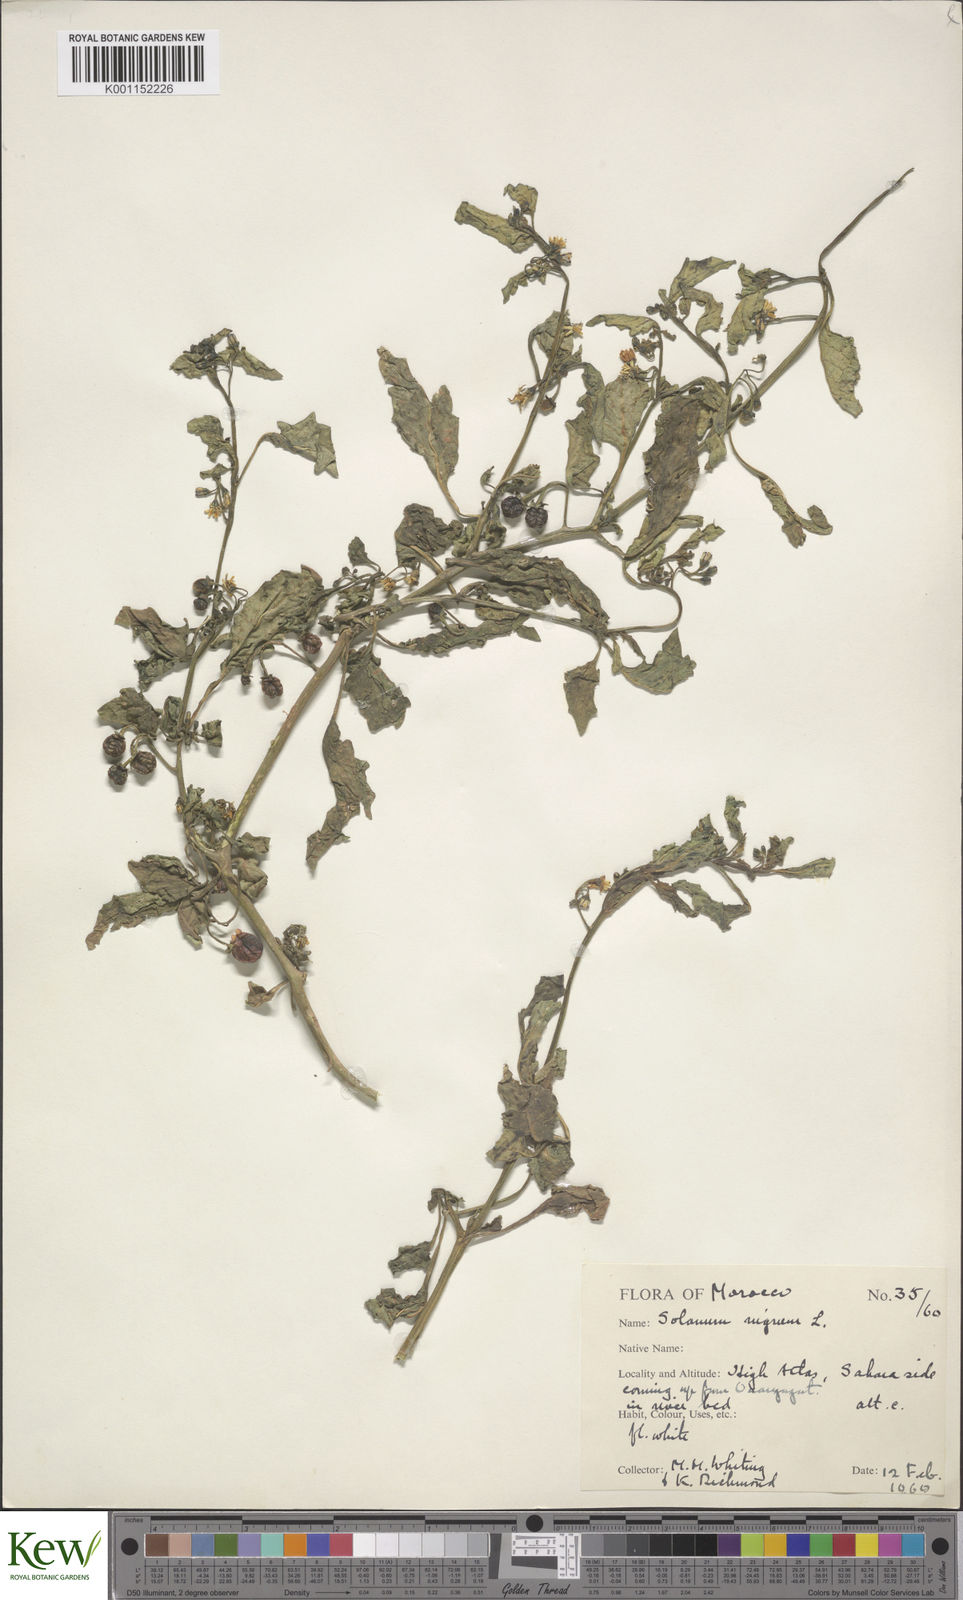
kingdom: Plantae
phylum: Tracheophyta
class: Magnoliopsida
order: Solanales
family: Solanaceae
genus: Solanum
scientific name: Solanum nigrum
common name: Black nightshade
